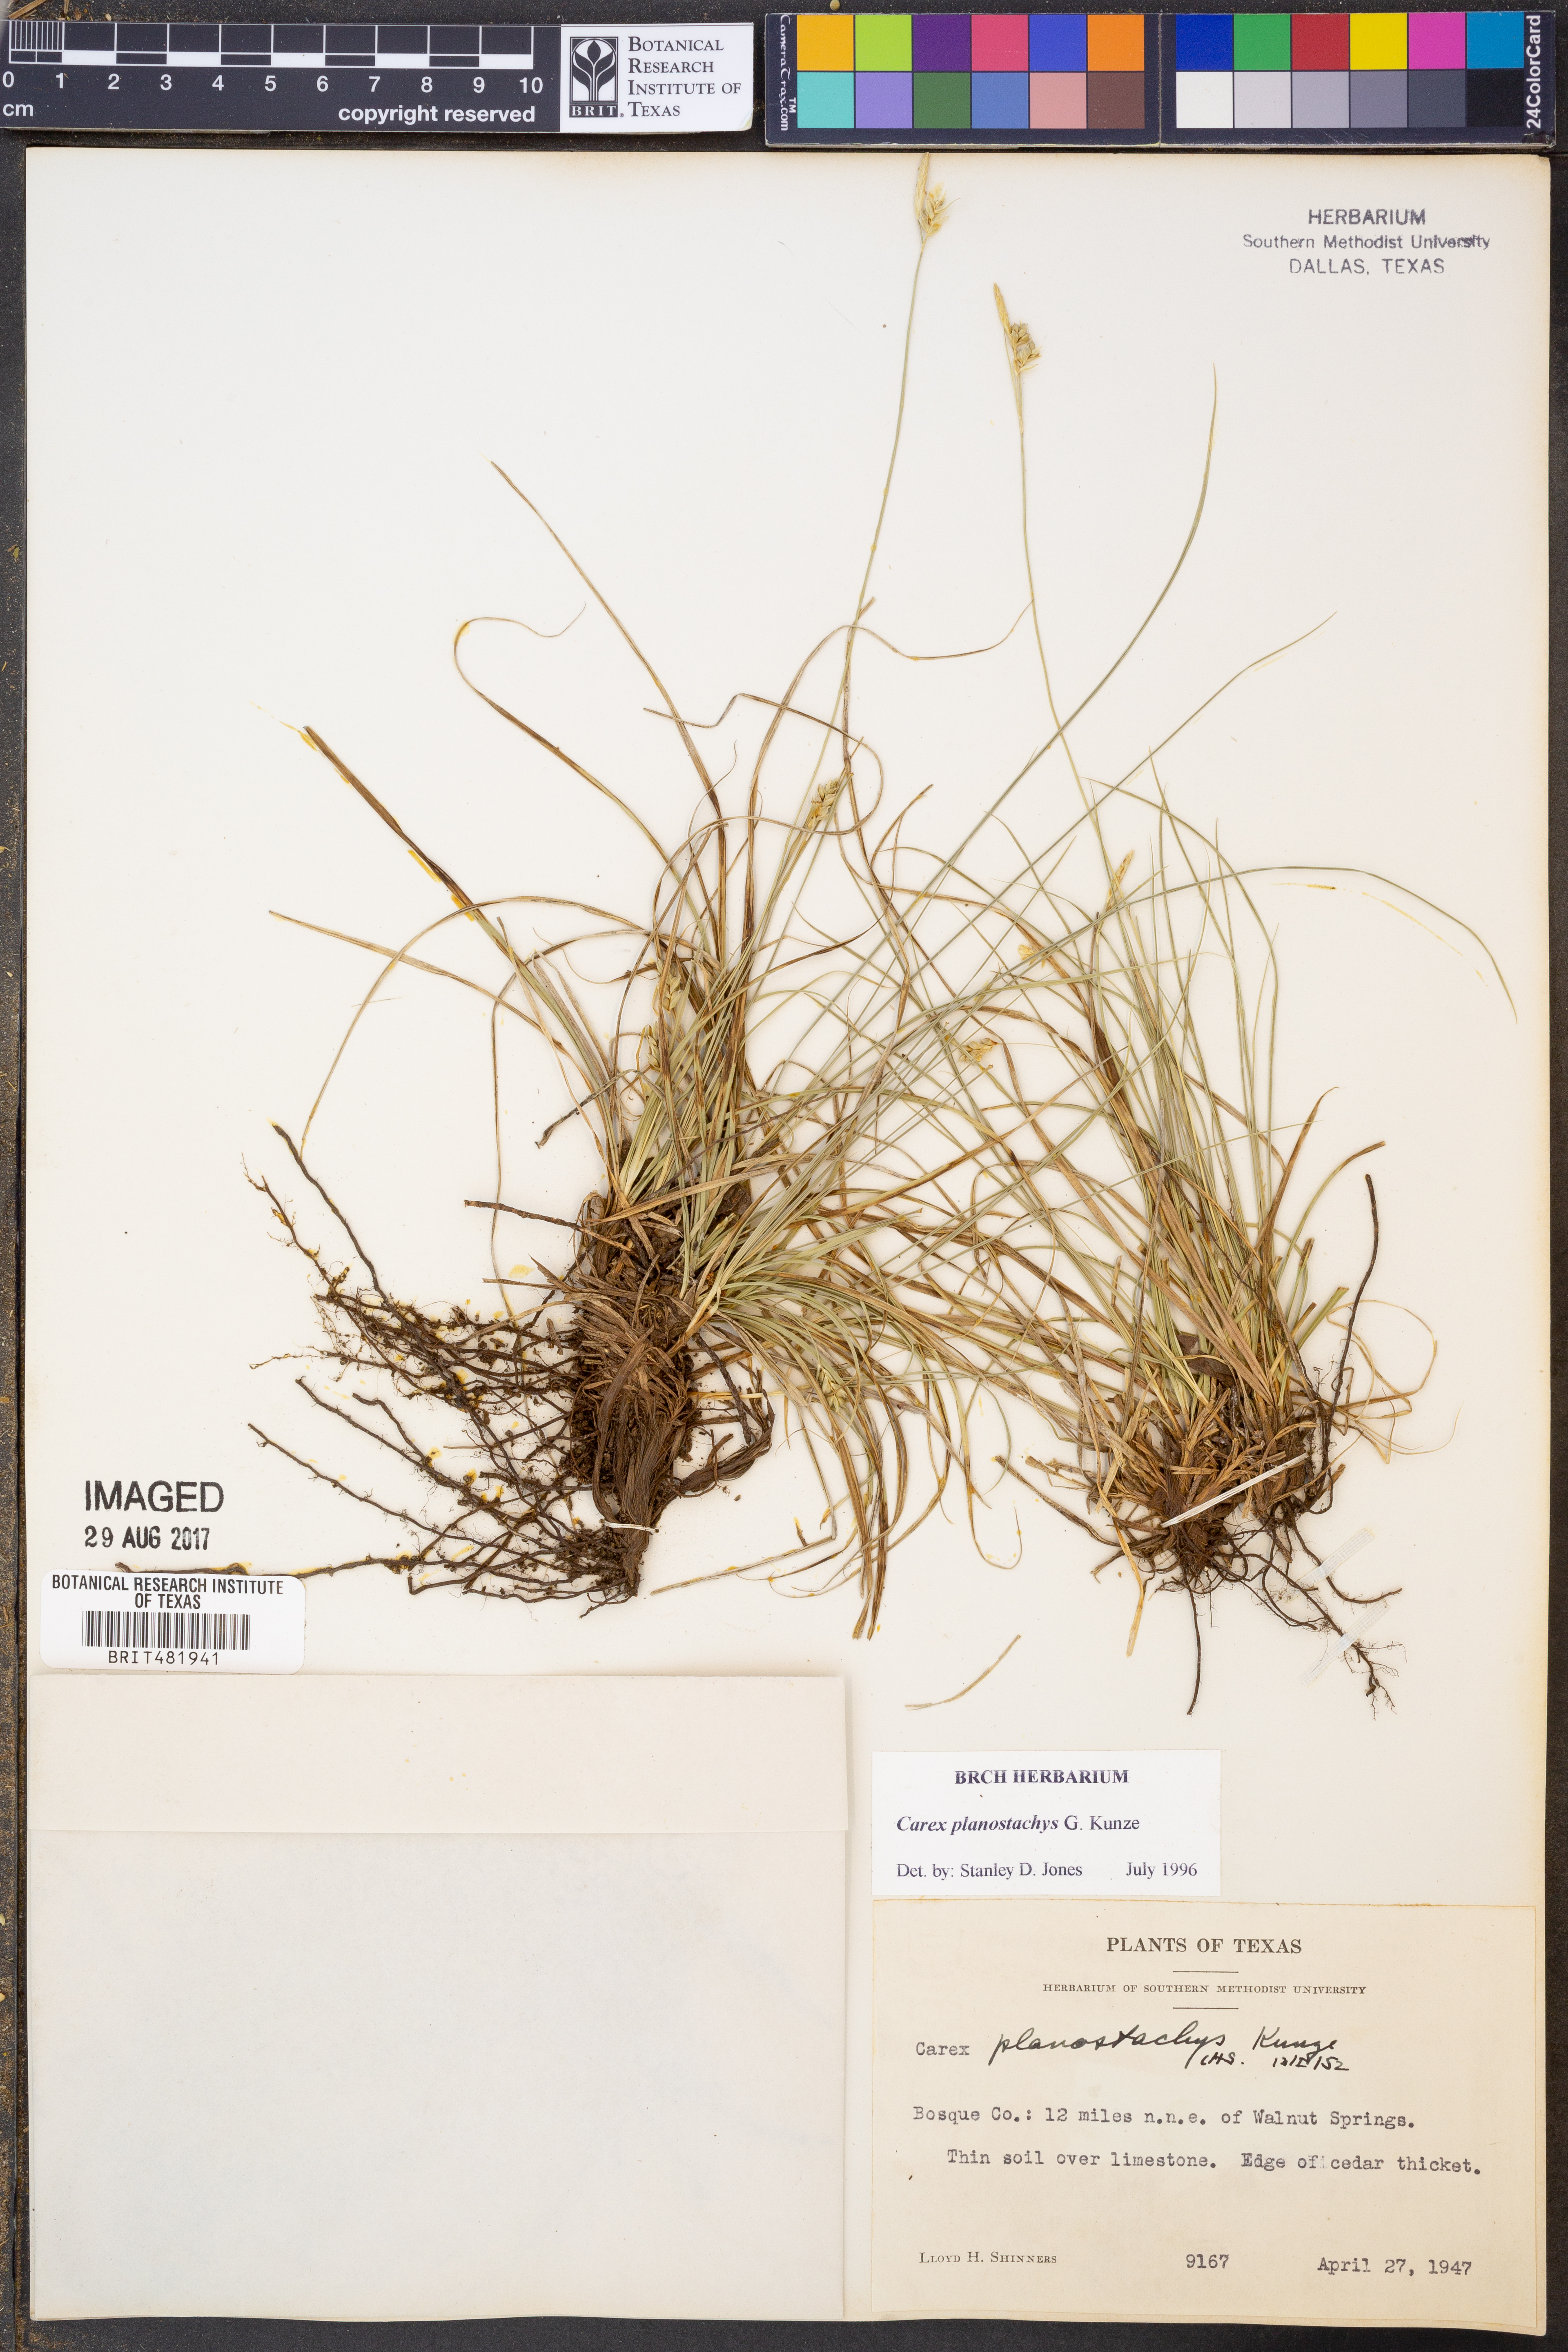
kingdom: Plantae
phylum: Tracheophyta
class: Liliopsida
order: Poales
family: Cyperaceae
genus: Carex
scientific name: Carex planostachys
